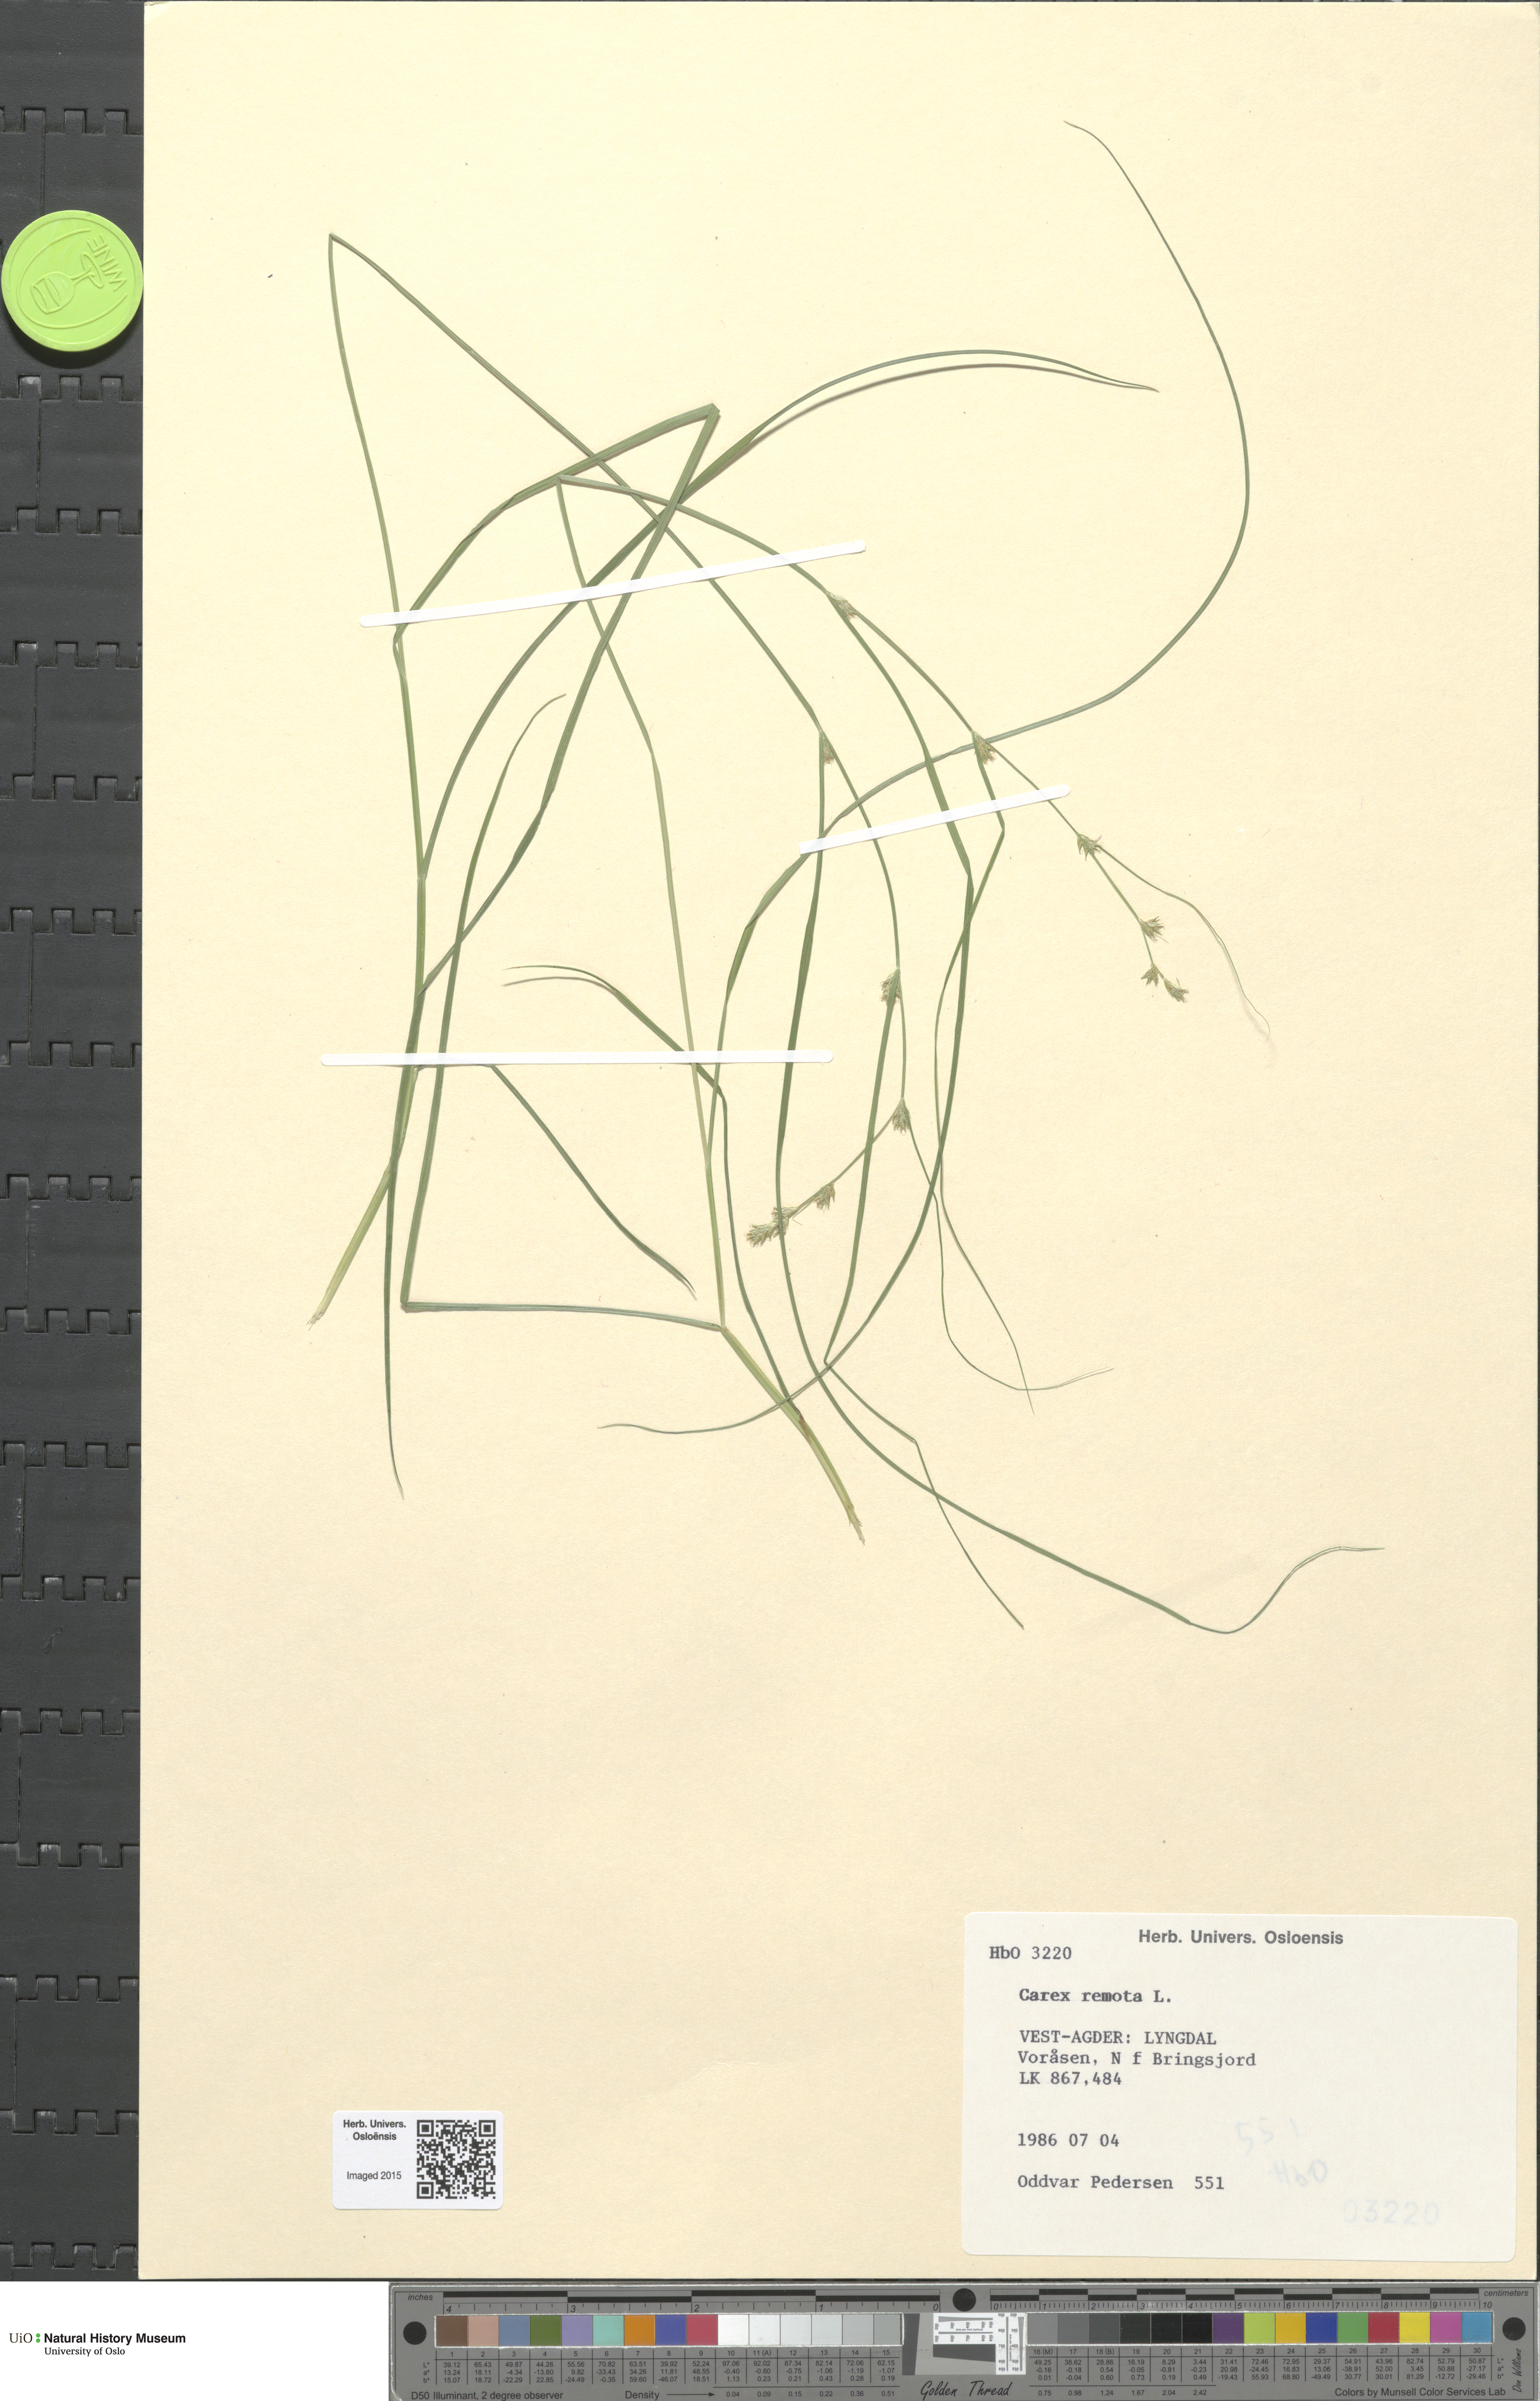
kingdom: Plantae
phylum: Tracheophyta
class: Liliopsida
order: Poales
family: Cyperaceae
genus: Carex
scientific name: Carex remota
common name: Remote sedge
